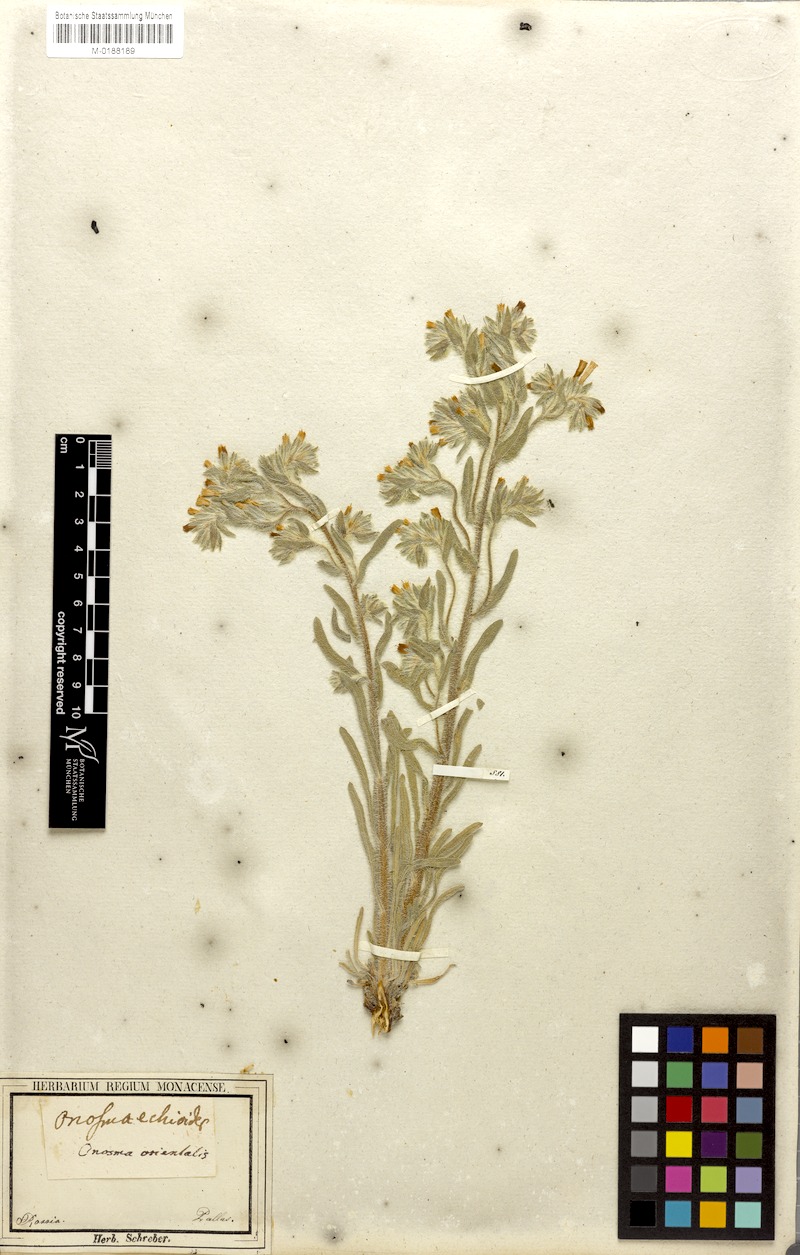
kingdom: Plantae
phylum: Tracheophyta
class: Magnoliopsida
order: Boraginales
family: Boraginaceae
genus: Onosma
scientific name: Onosma tinctoria
